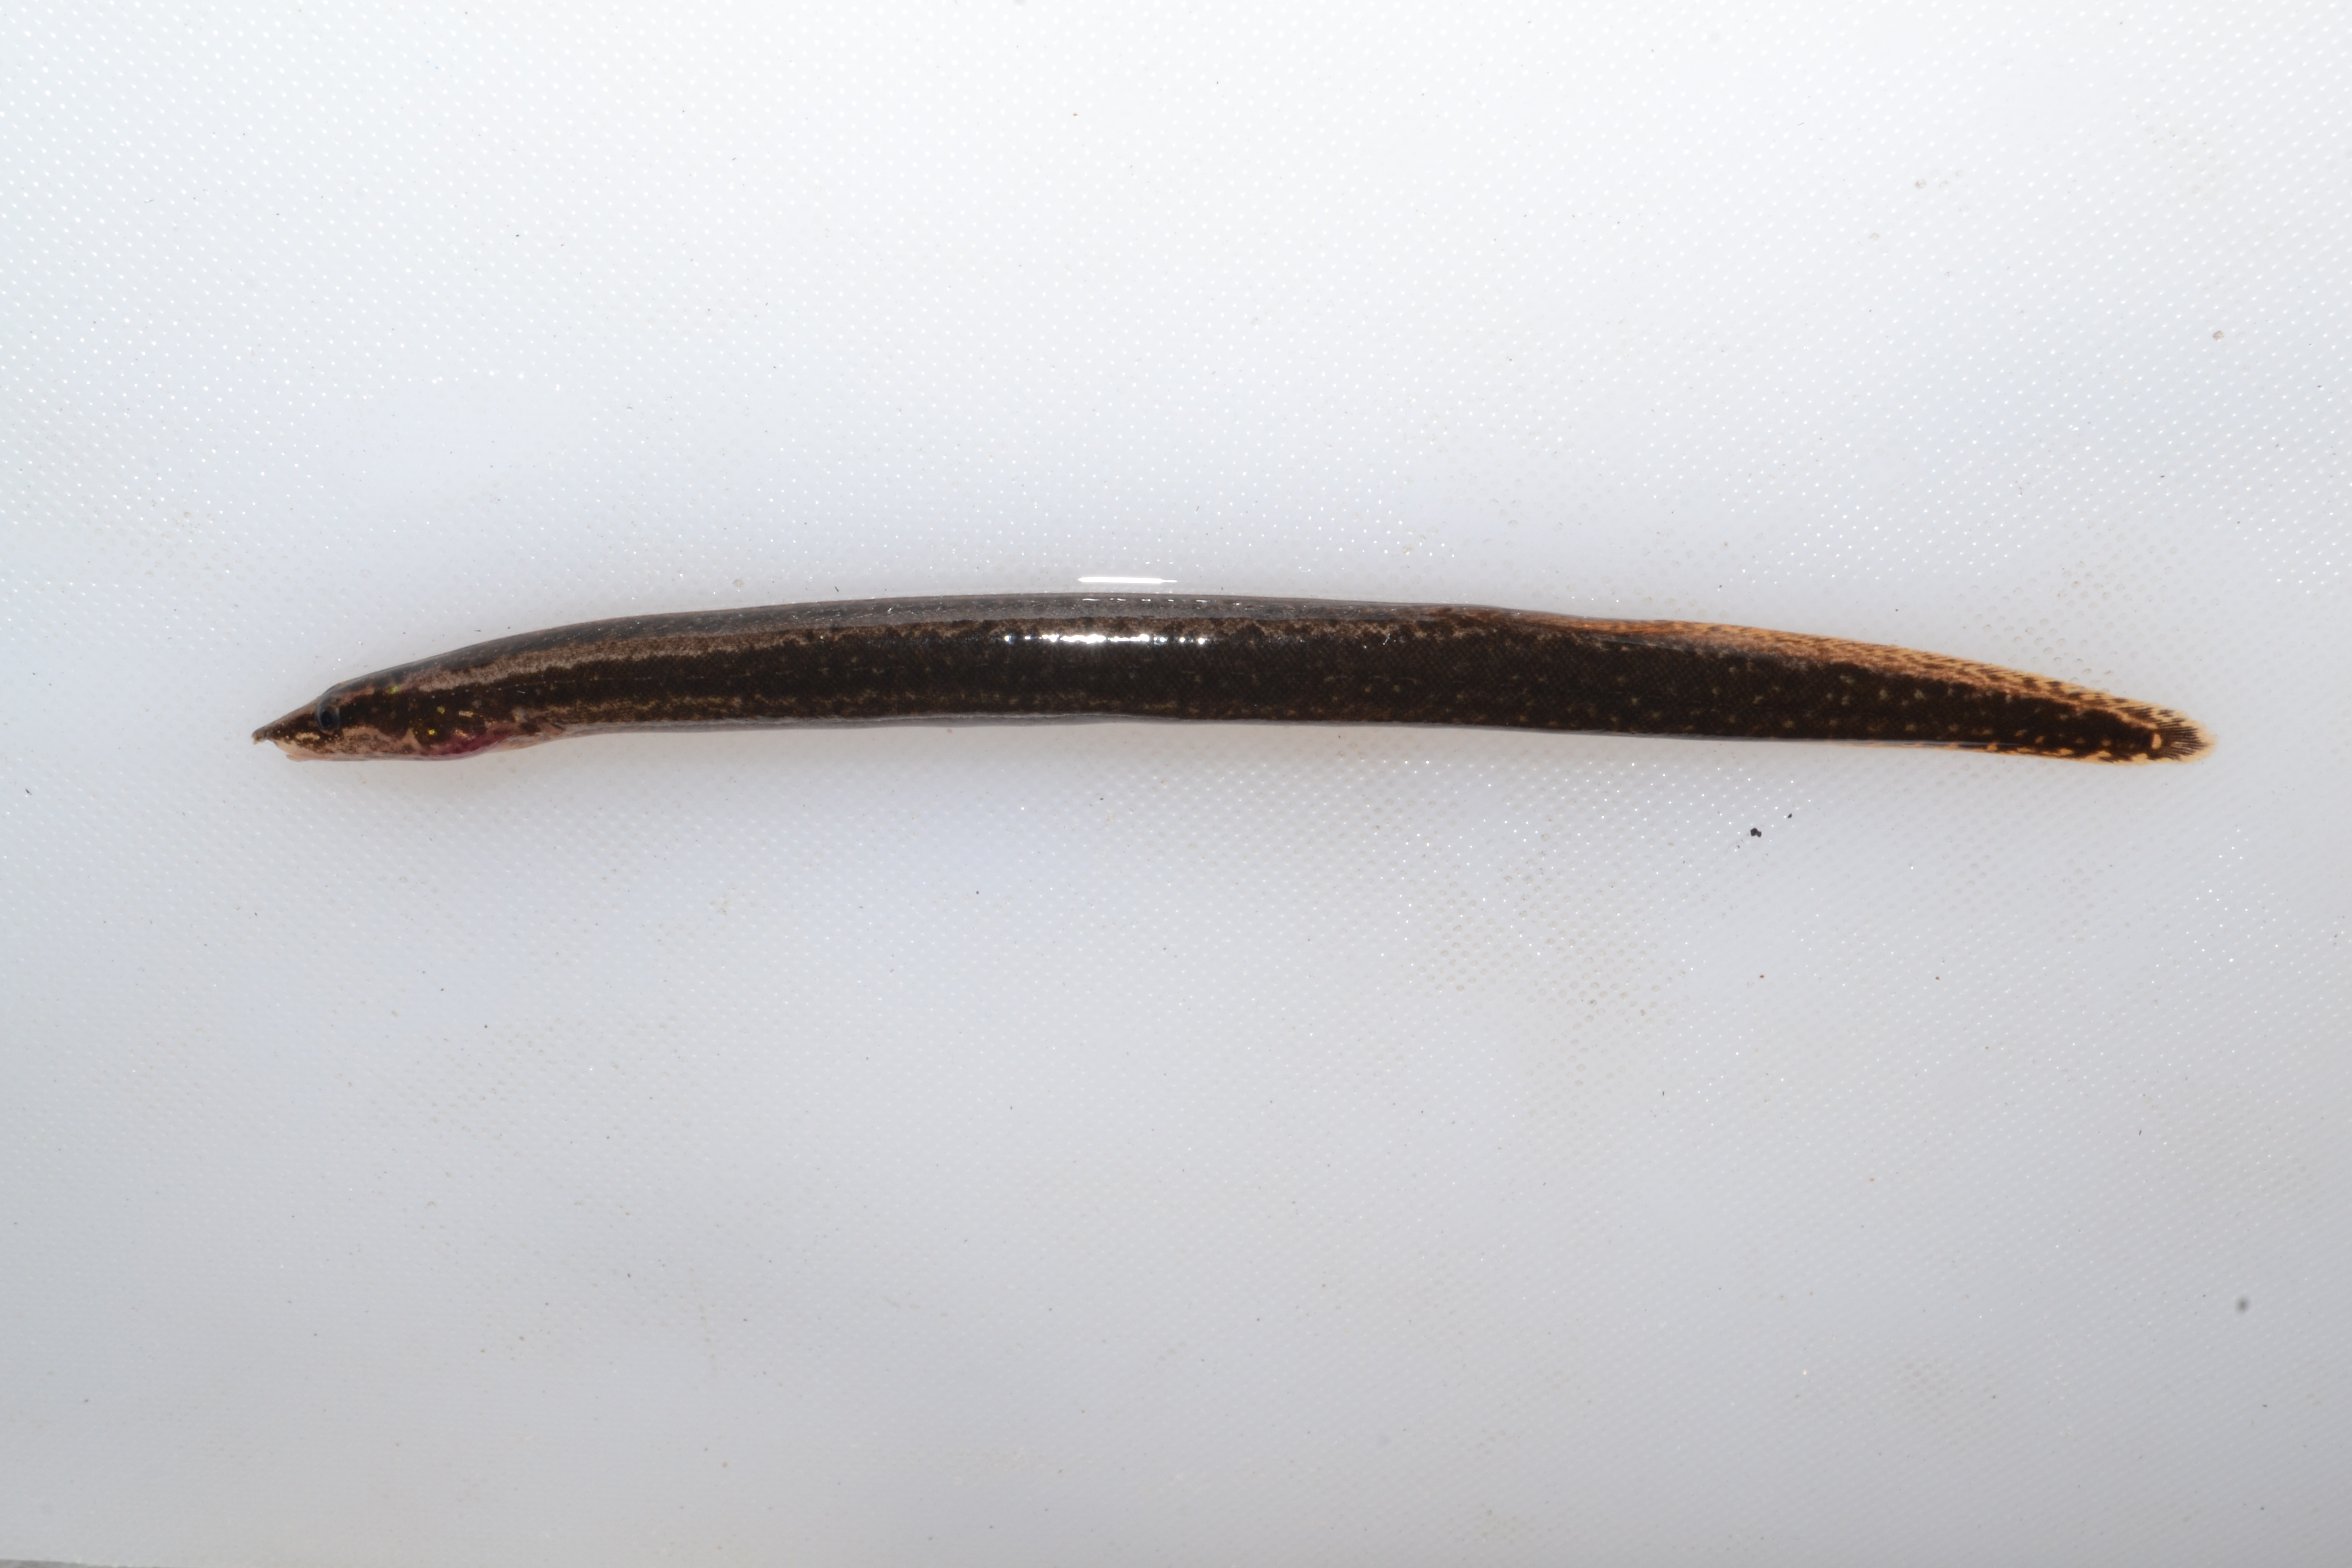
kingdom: Animalia
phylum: Chordata
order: Synbranchiformes
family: Mastacembelidae
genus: Mastacembelus
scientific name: Mastacembelus frenatus
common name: East african spiny eel
